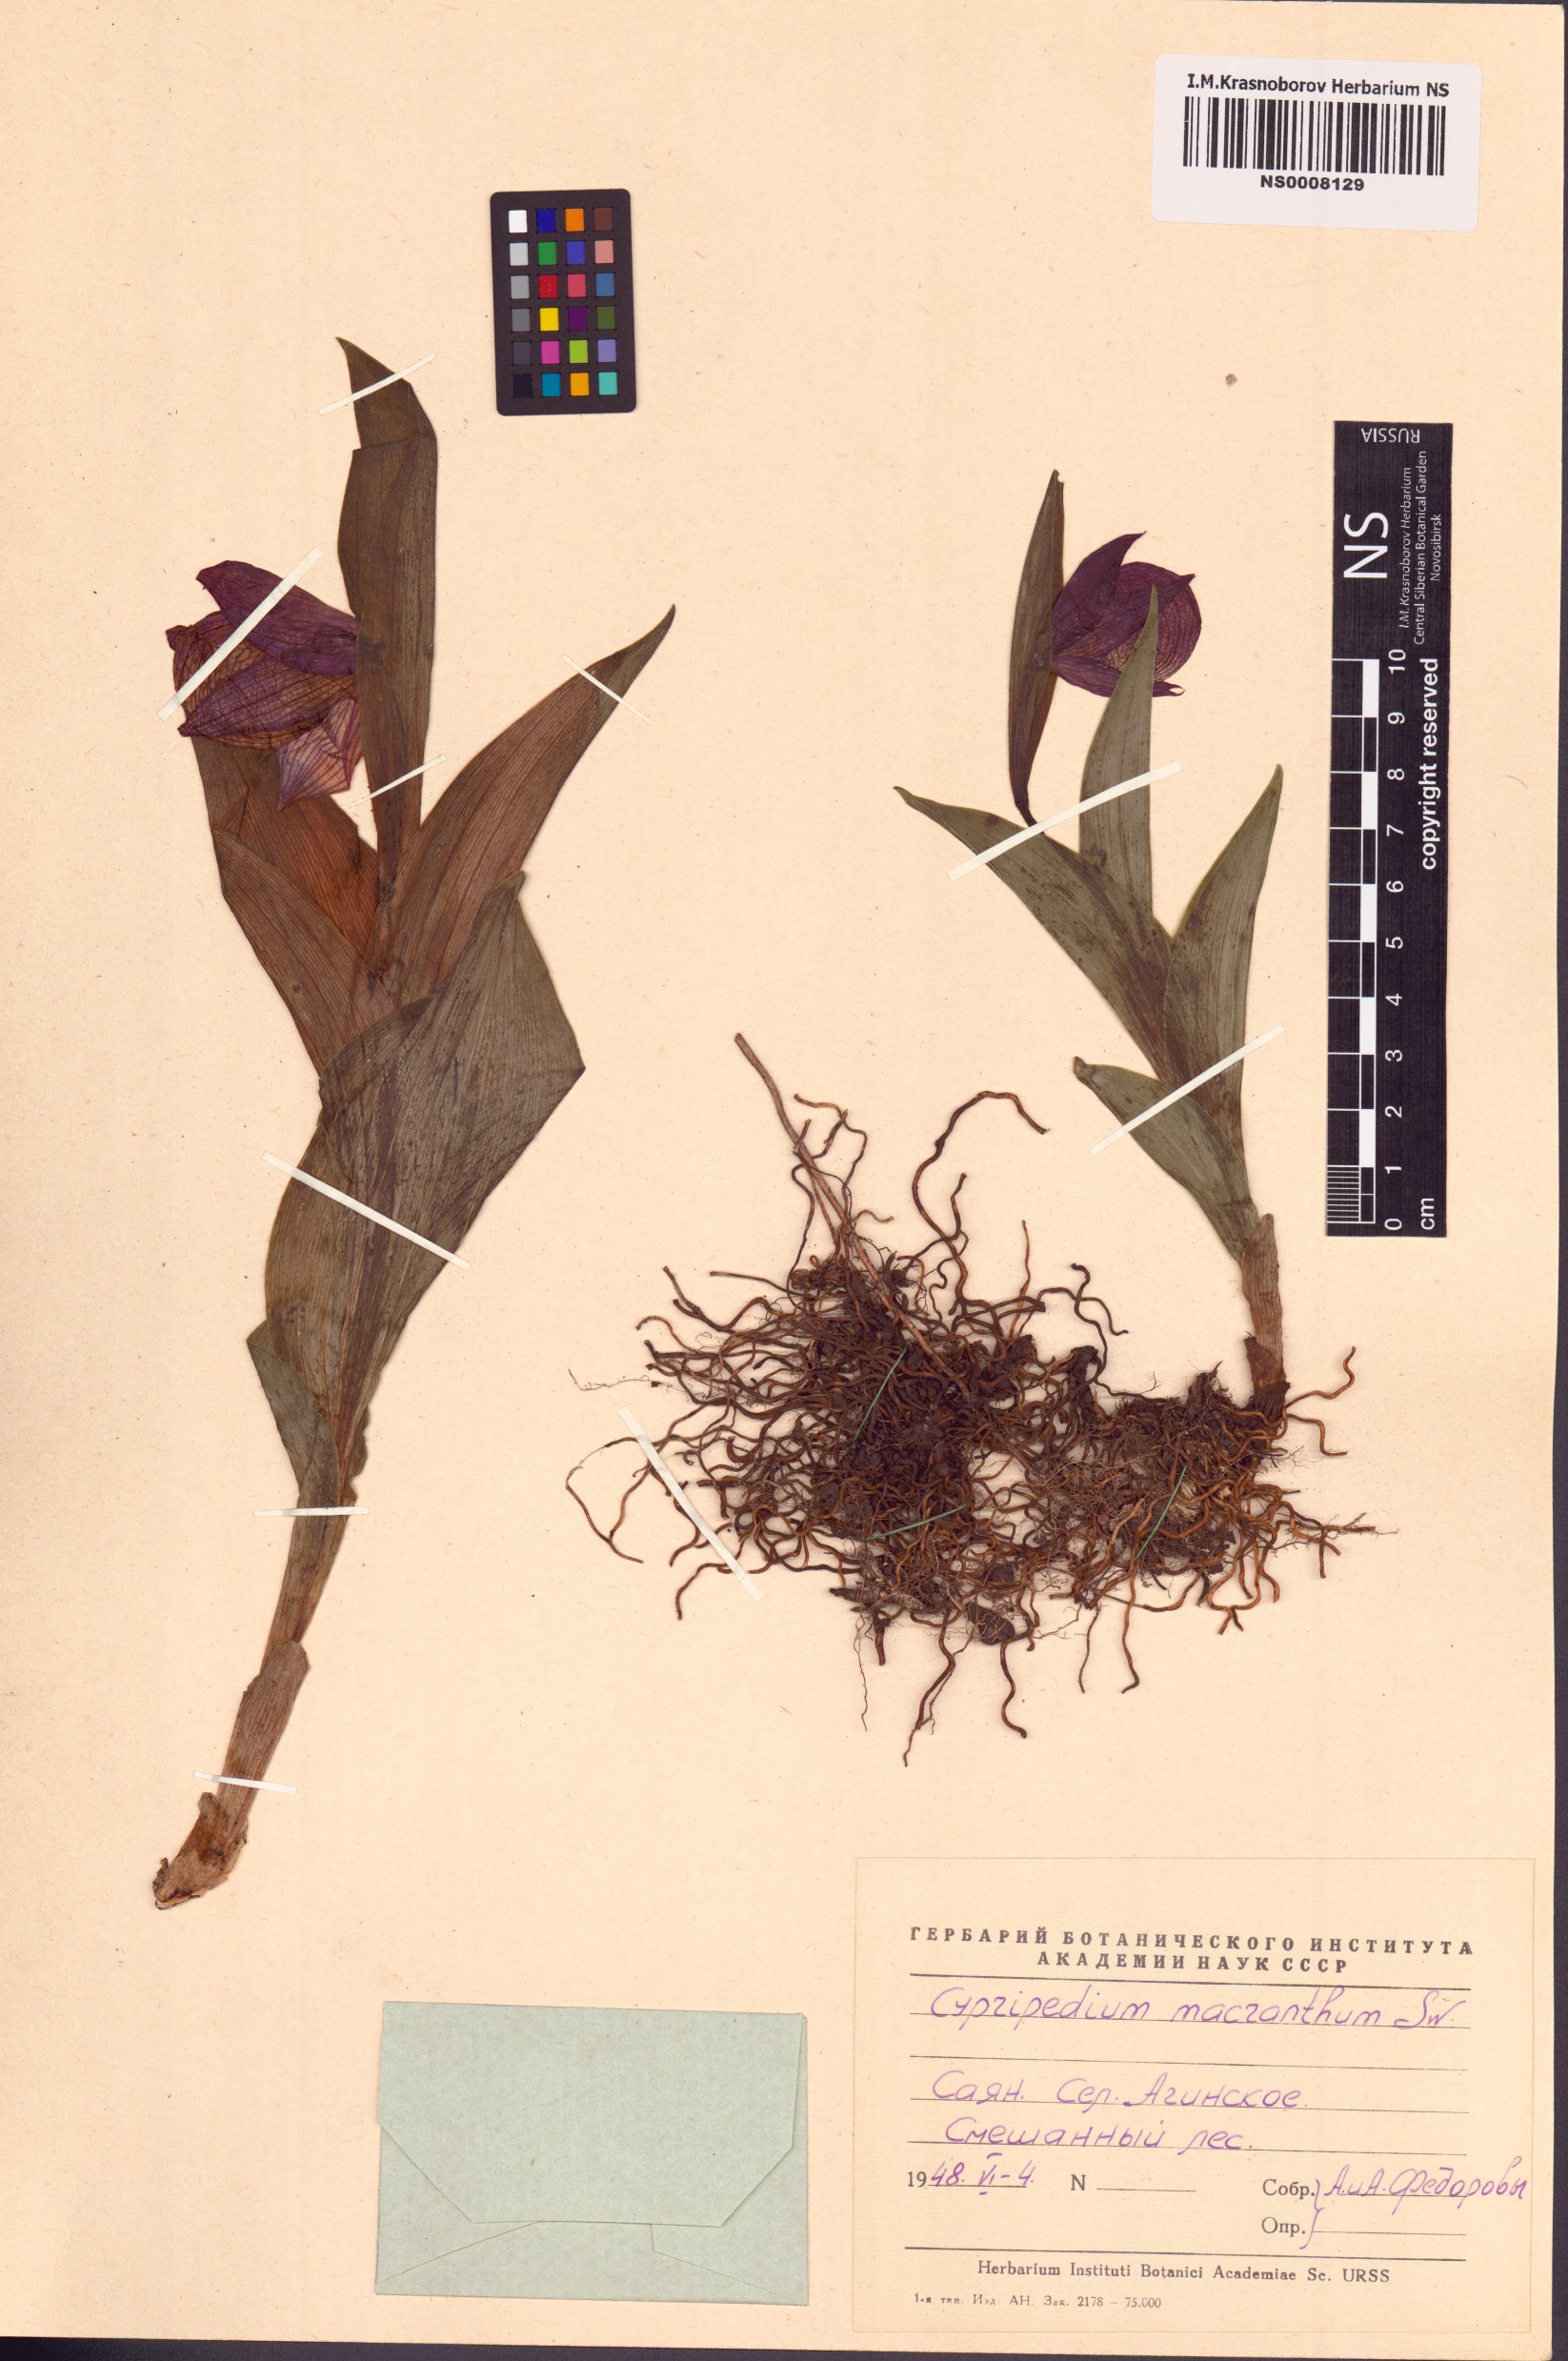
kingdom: Plantae
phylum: Tracheophyta
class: Liliopsida
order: Asparagales
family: Orchidaceae
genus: Cypripedium
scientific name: Cypripedium macranthos
